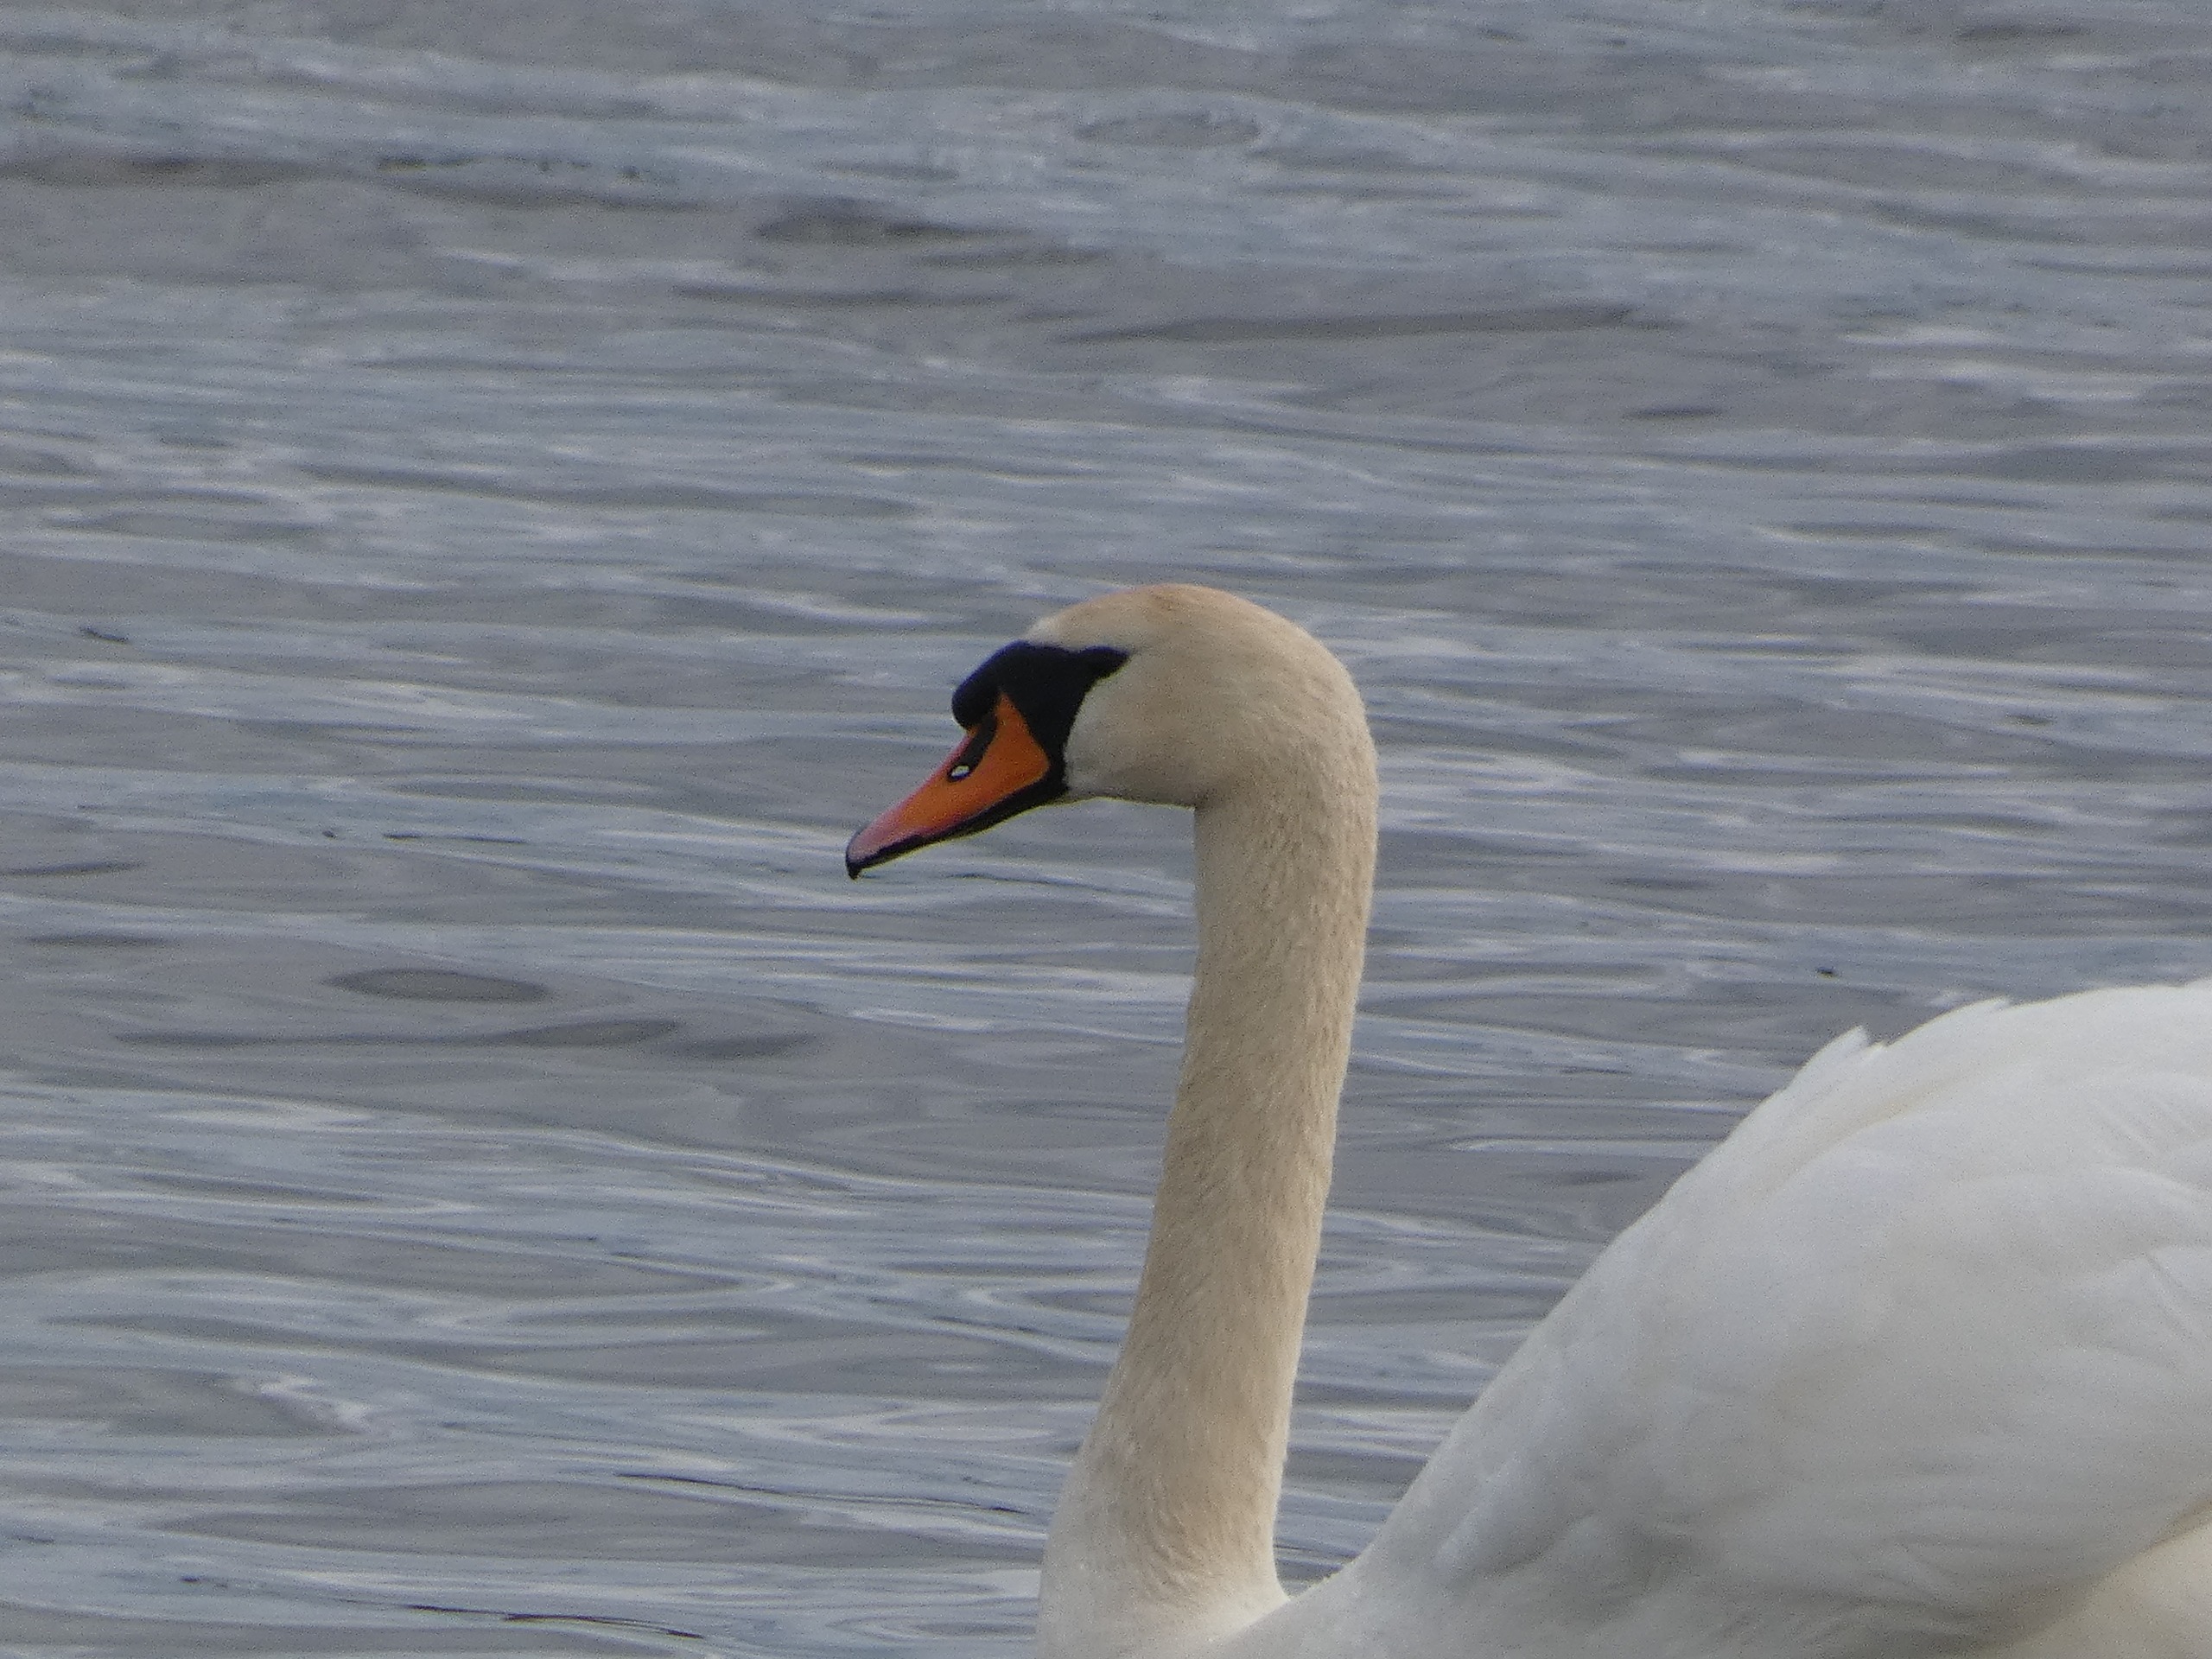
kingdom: Animalia
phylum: Chordata
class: Aves
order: Anseriformes
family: Anatidae
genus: Cygnus
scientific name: Cygnus olor
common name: Knopsvane
